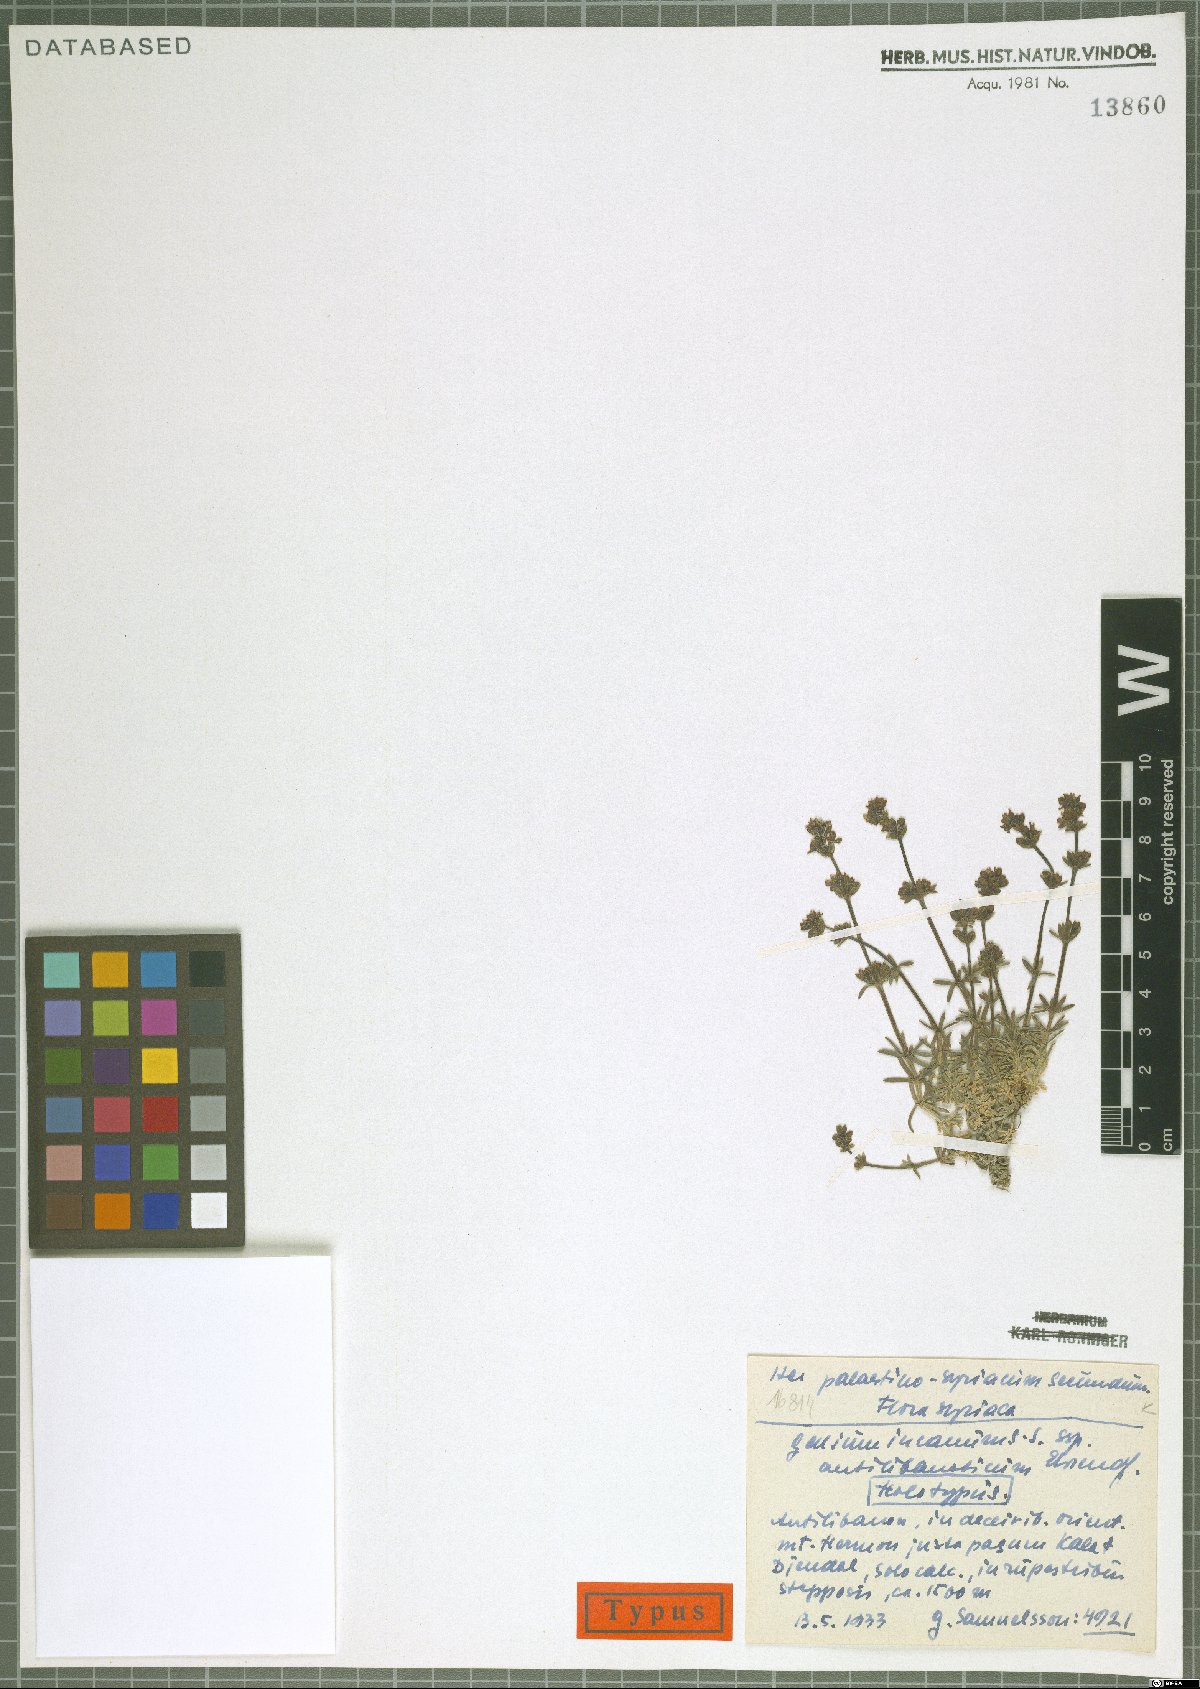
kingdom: Plantae
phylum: Tracheophyta
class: Magnoliopsida
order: Gentianales
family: Rubiaceae
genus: Galium
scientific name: Galium incanum
